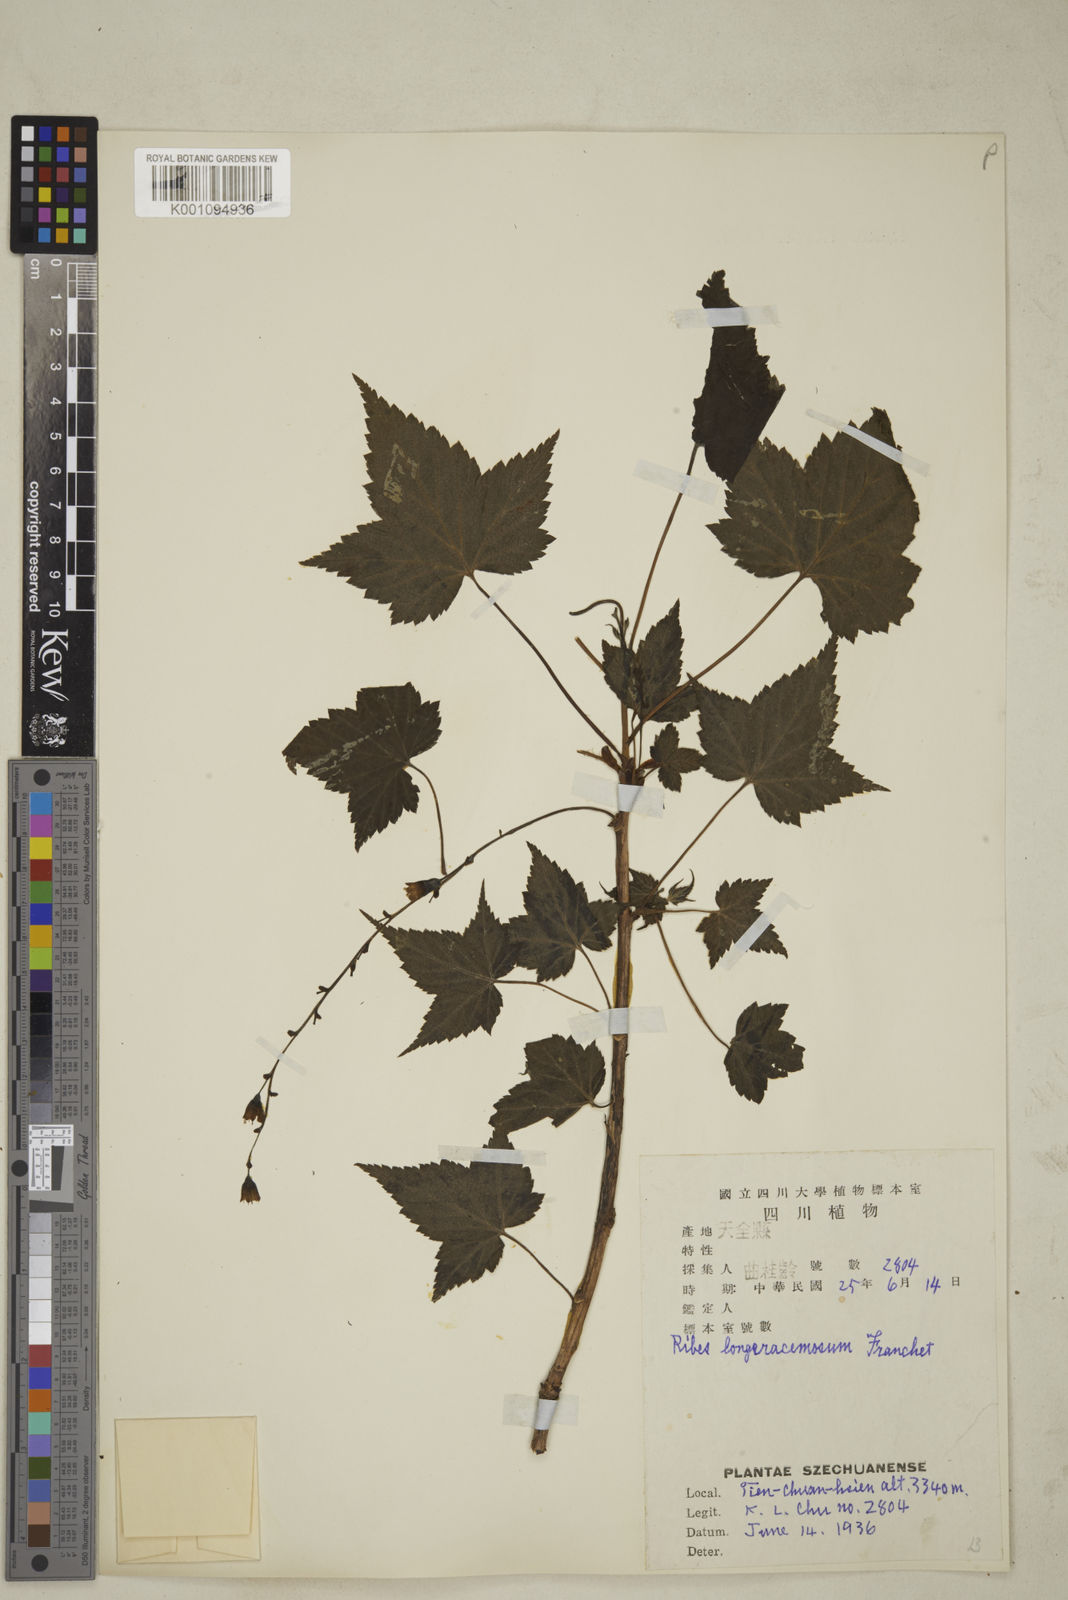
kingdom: Plantae
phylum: Tracheophyta
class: Magnoliopsida
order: Saxifragales
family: Grossulariaceae
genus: Ribes
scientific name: Ribes longeracemosum
